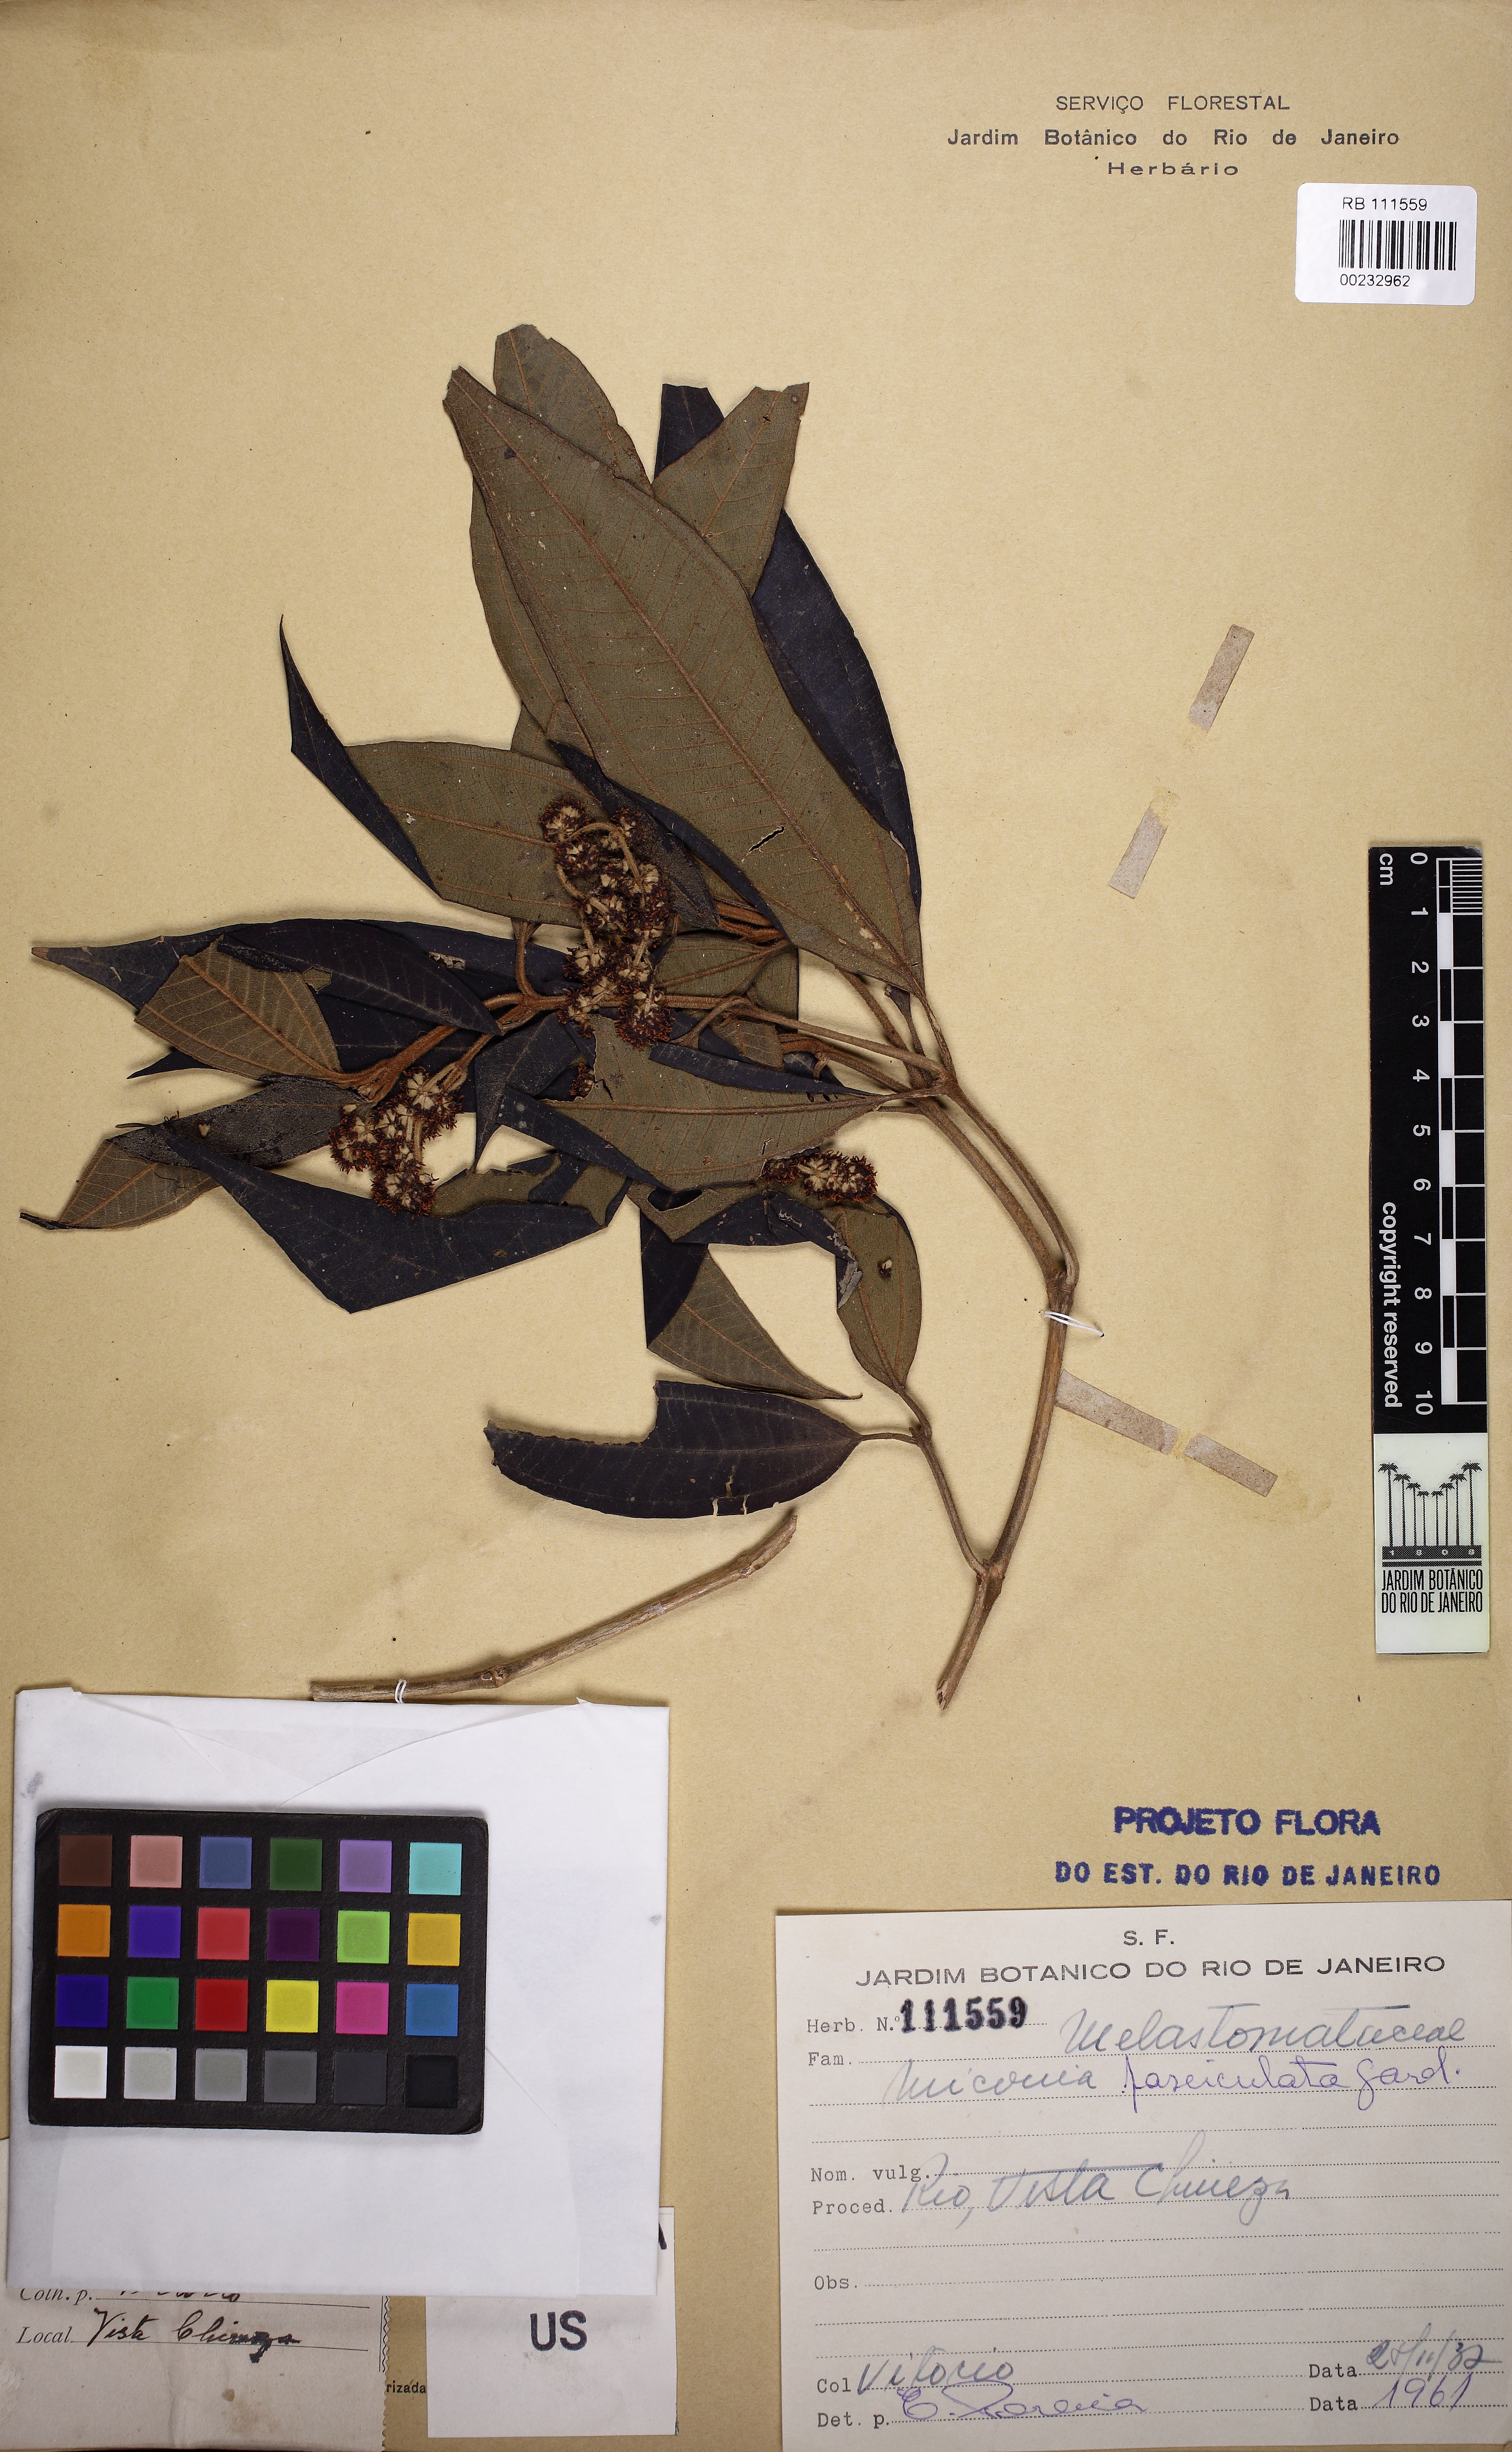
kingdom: Plantae
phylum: Tracheophyta
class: Magnoliopsida
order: Myrtales
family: Melastomataceae
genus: Miconia
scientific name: Miconia fasciculata
